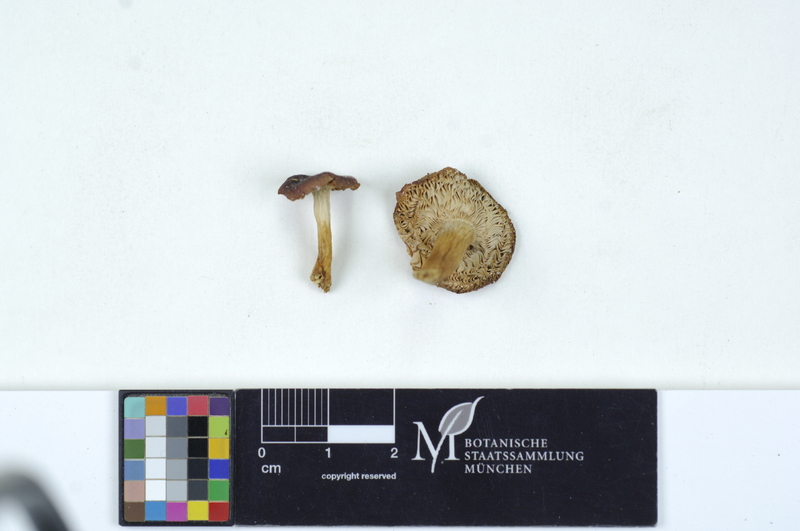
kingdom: Fungi
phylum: Basidiomycota
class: Agaricomycetes
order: Russulales
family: Russulaceae
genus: Russula
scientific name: Russula puellaris
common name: Yellowing brittlegill
